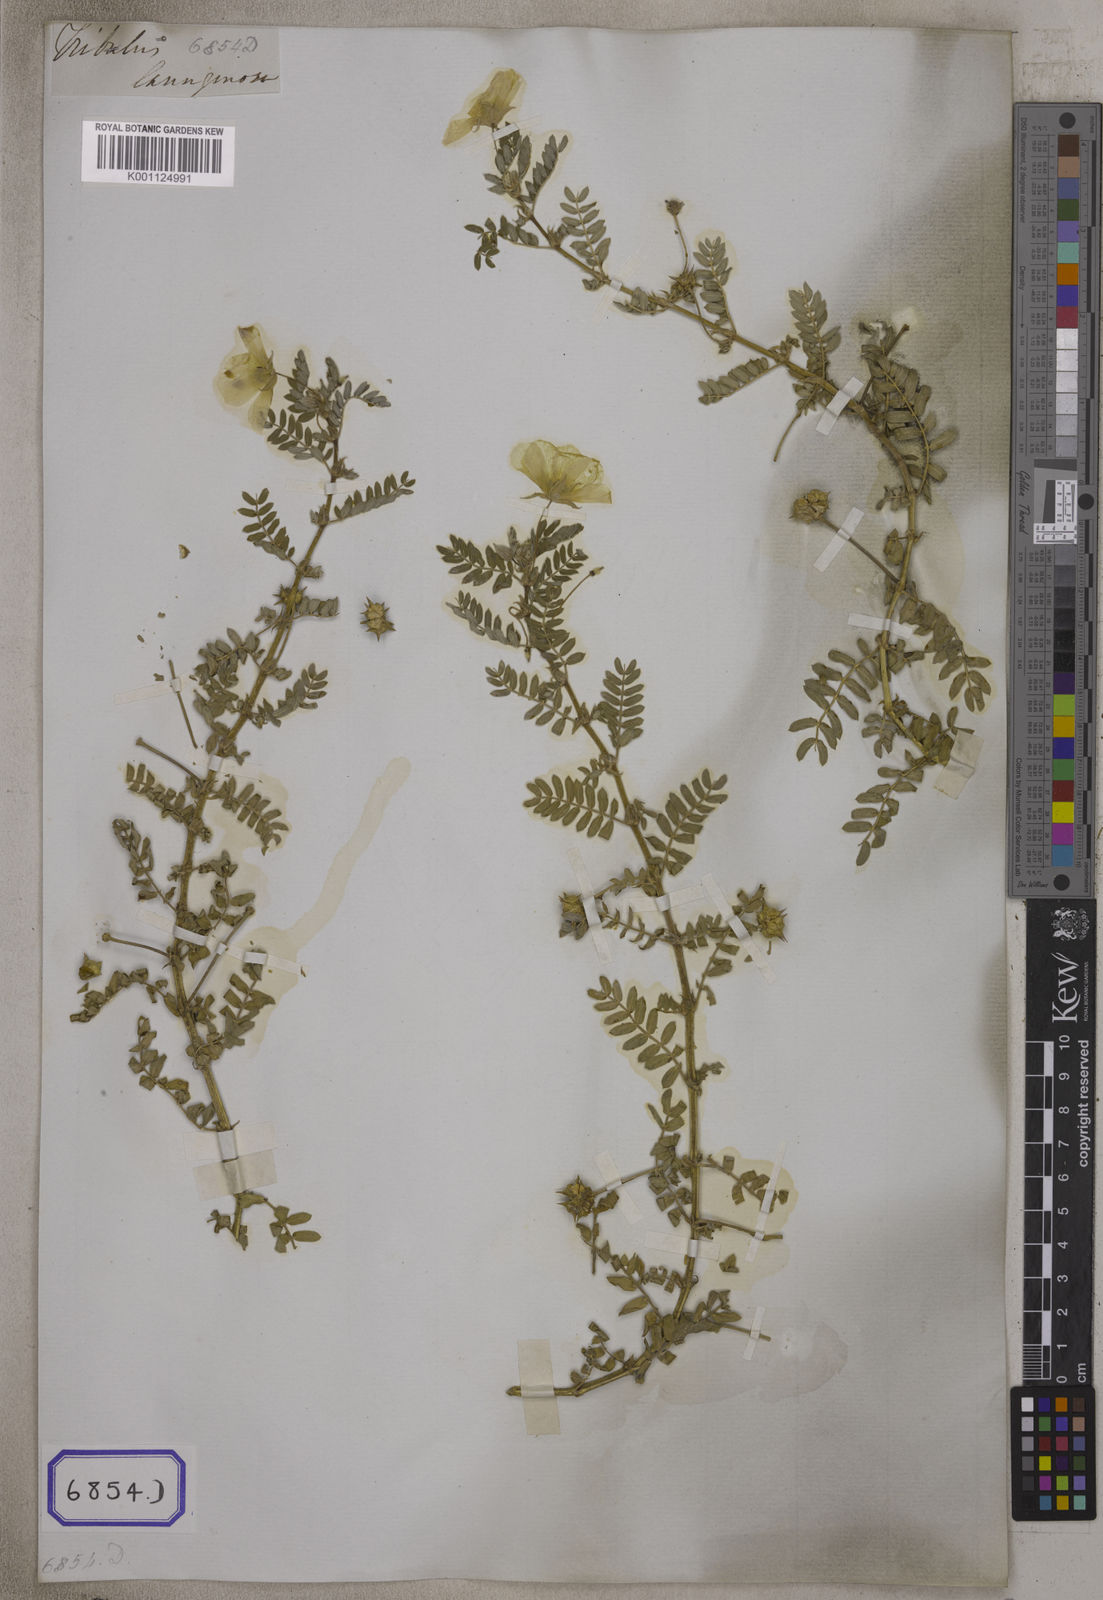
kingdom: Plantae
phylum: Tracheophyta
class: Magnoliopsida
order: Zygophyllales
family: Zygophyllaceae
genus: Tribulus
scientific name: Tribulus terrestris
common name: Puncturevine
